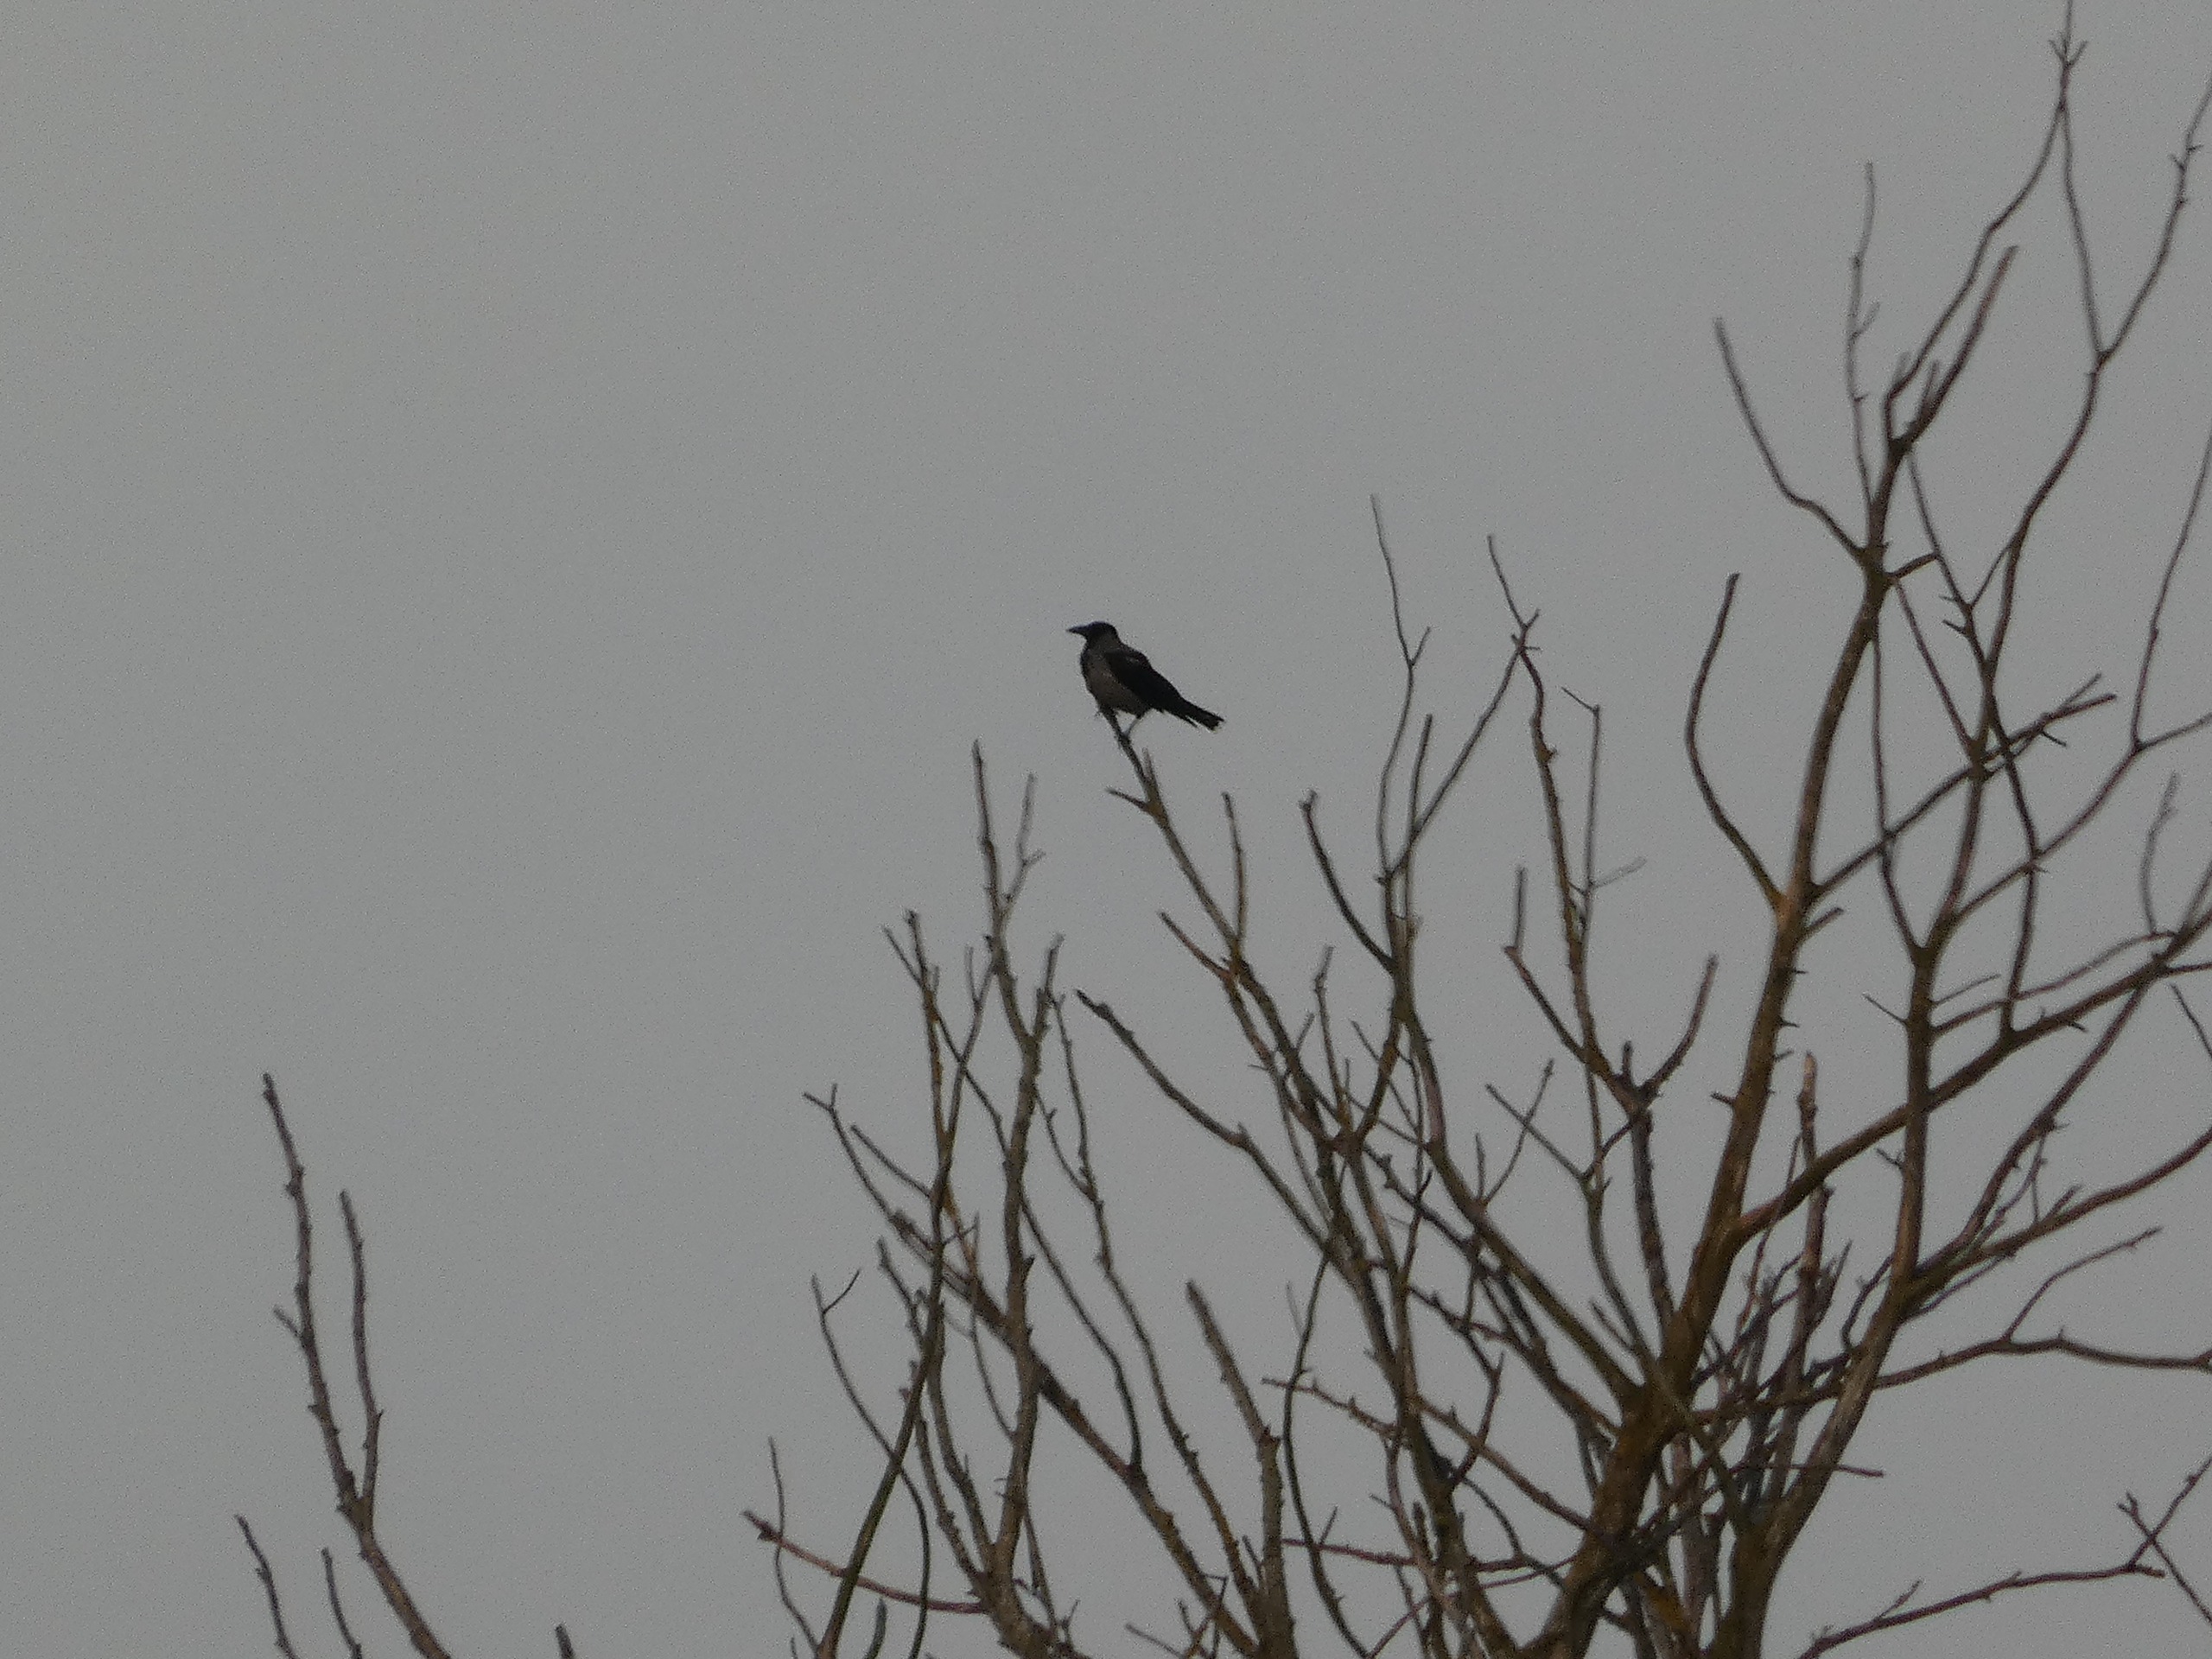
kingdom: Animalia
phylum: Chordata
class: Aves
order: Passeriformes
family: Corvidae
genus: Corvus
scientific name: Corvus cornix
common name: Gråkrage
